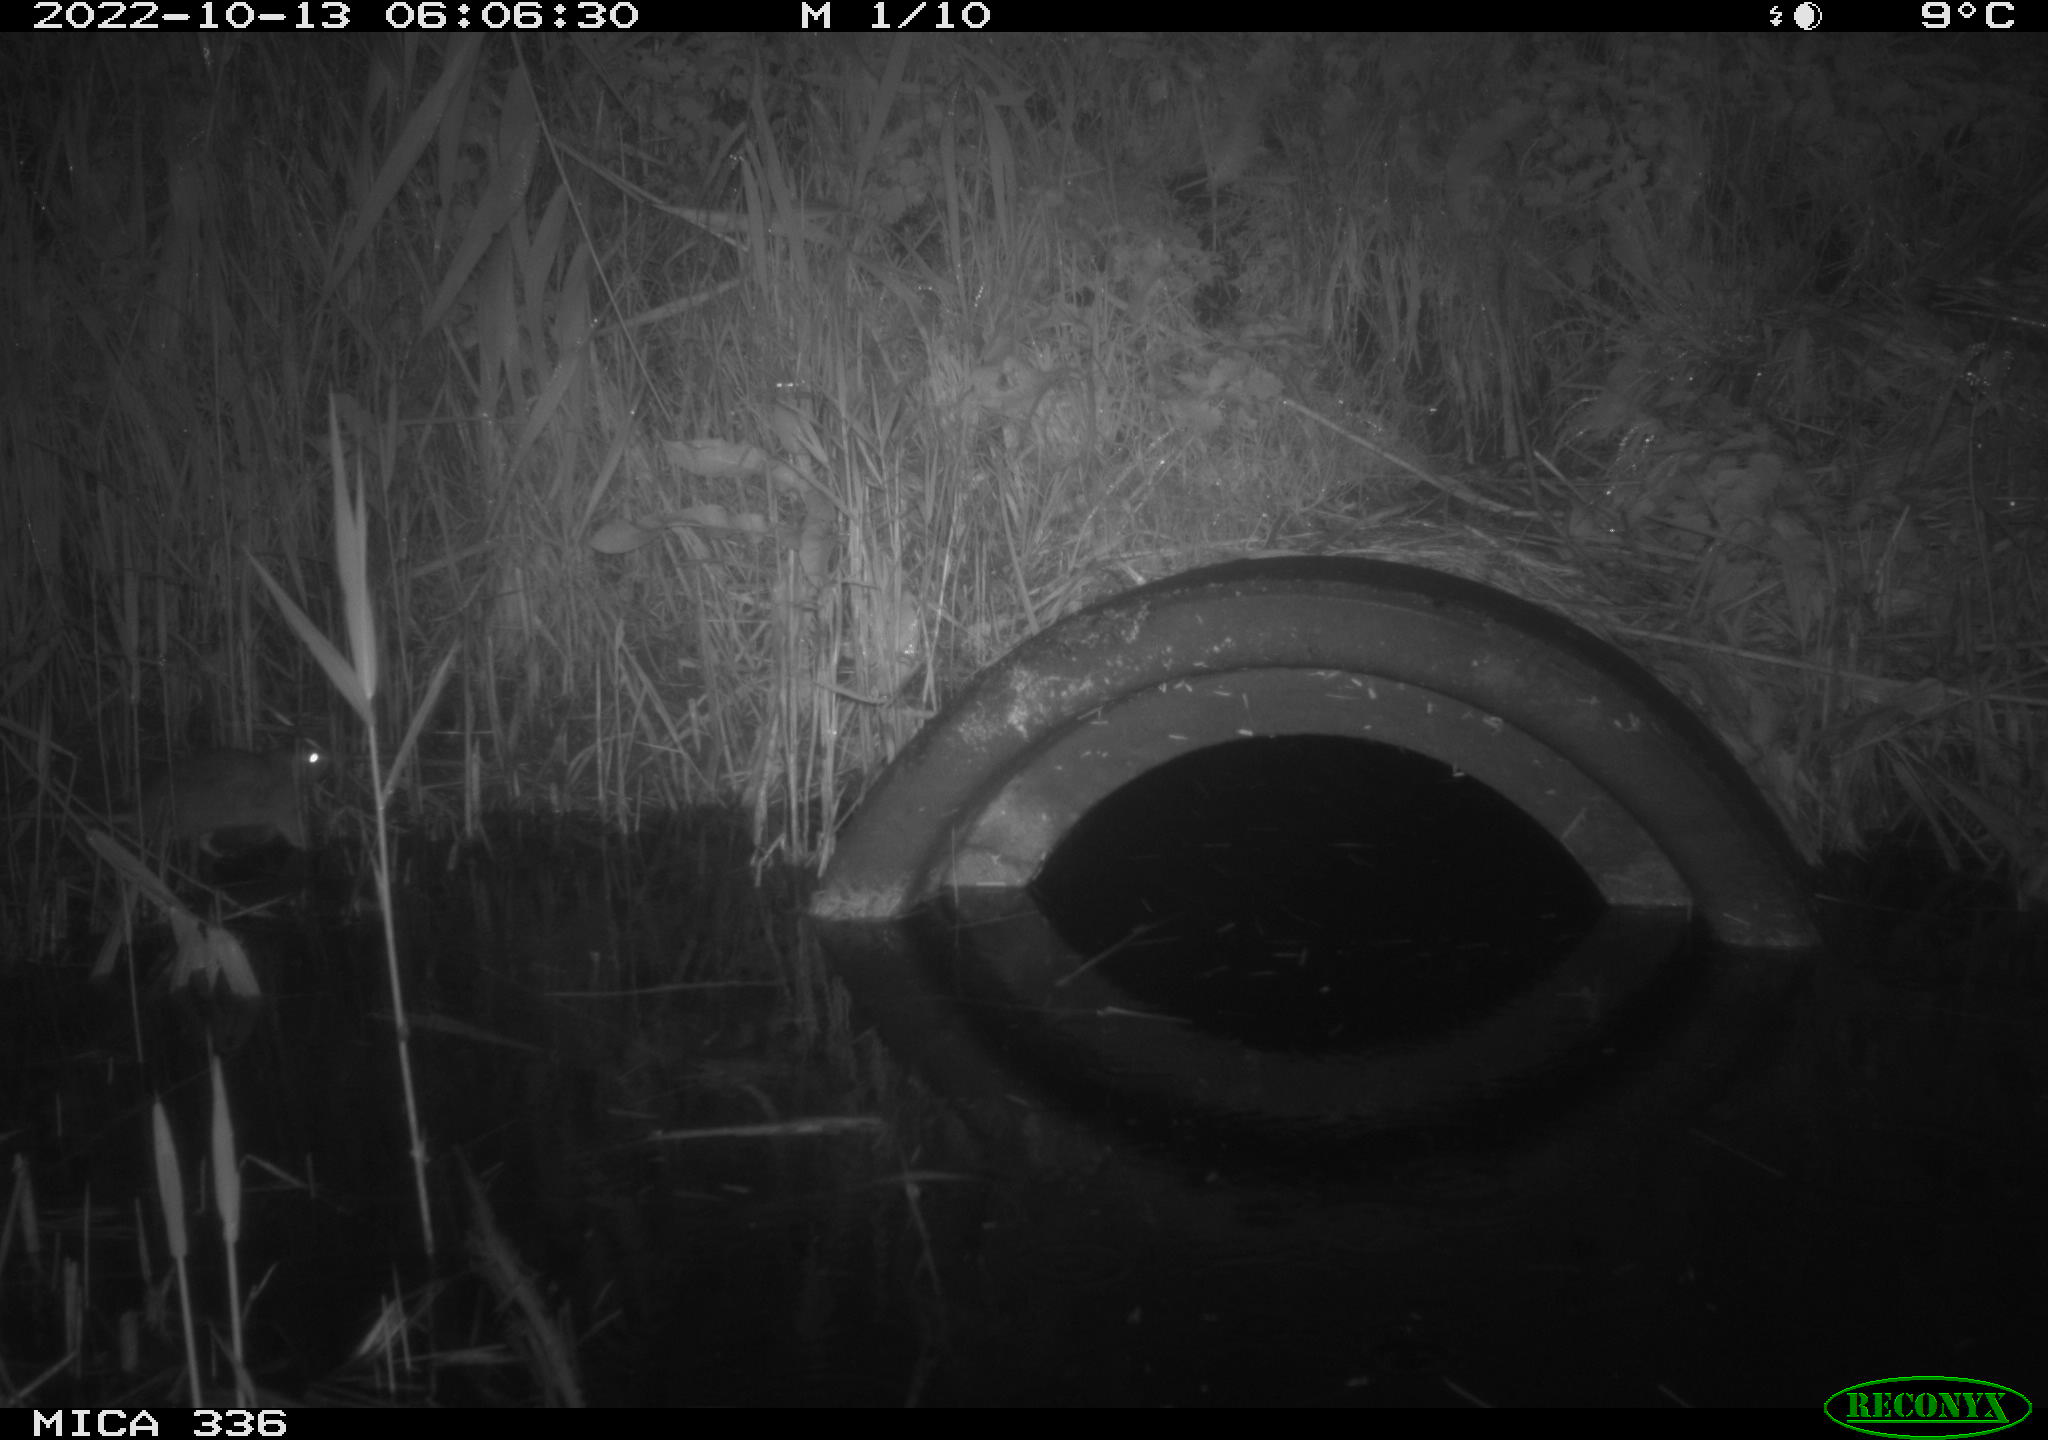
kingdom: Animalia
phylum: Chordata
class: Mammalia
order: Rodentia
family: Muridae
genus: Rattus
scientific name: Rattus norvegicus
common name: Brown rat
